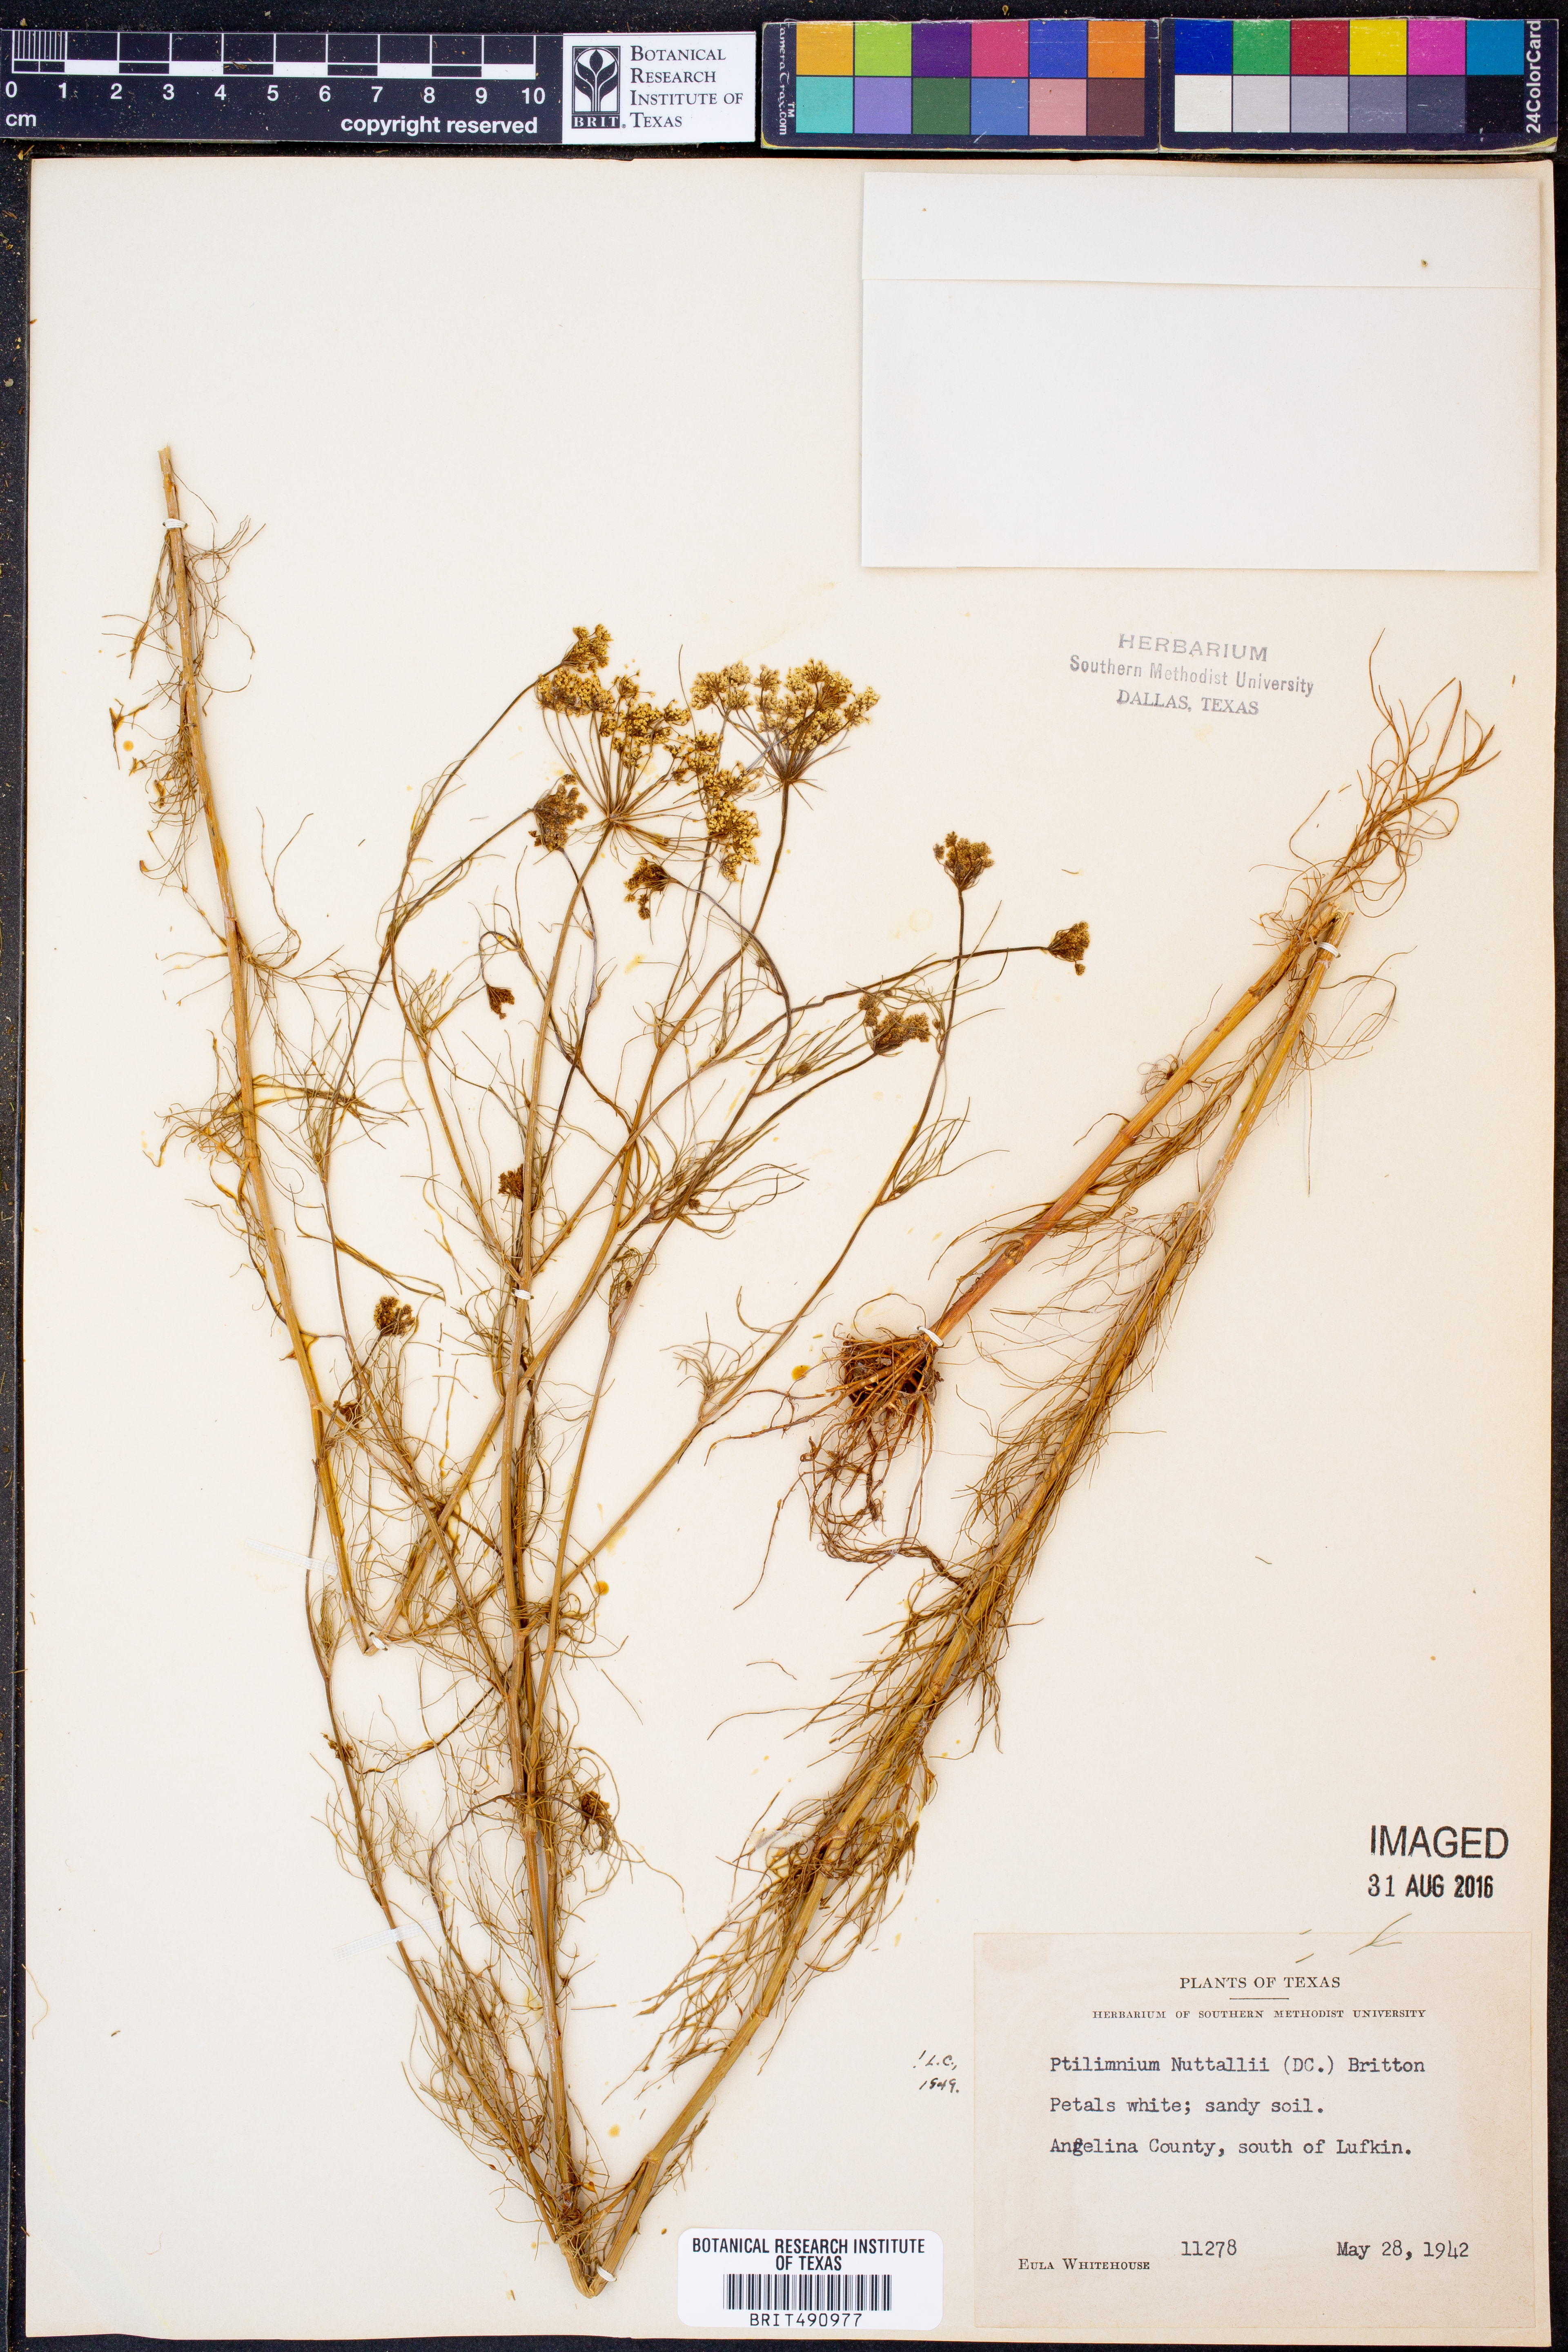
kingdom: Plantae
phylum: Tracheophyta
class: Magnoliopsida
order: Apiales
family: Apiaceae
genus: Ptilimnium
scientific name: Ptilimnium nuttallii
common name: Ozark bishop's-weed
